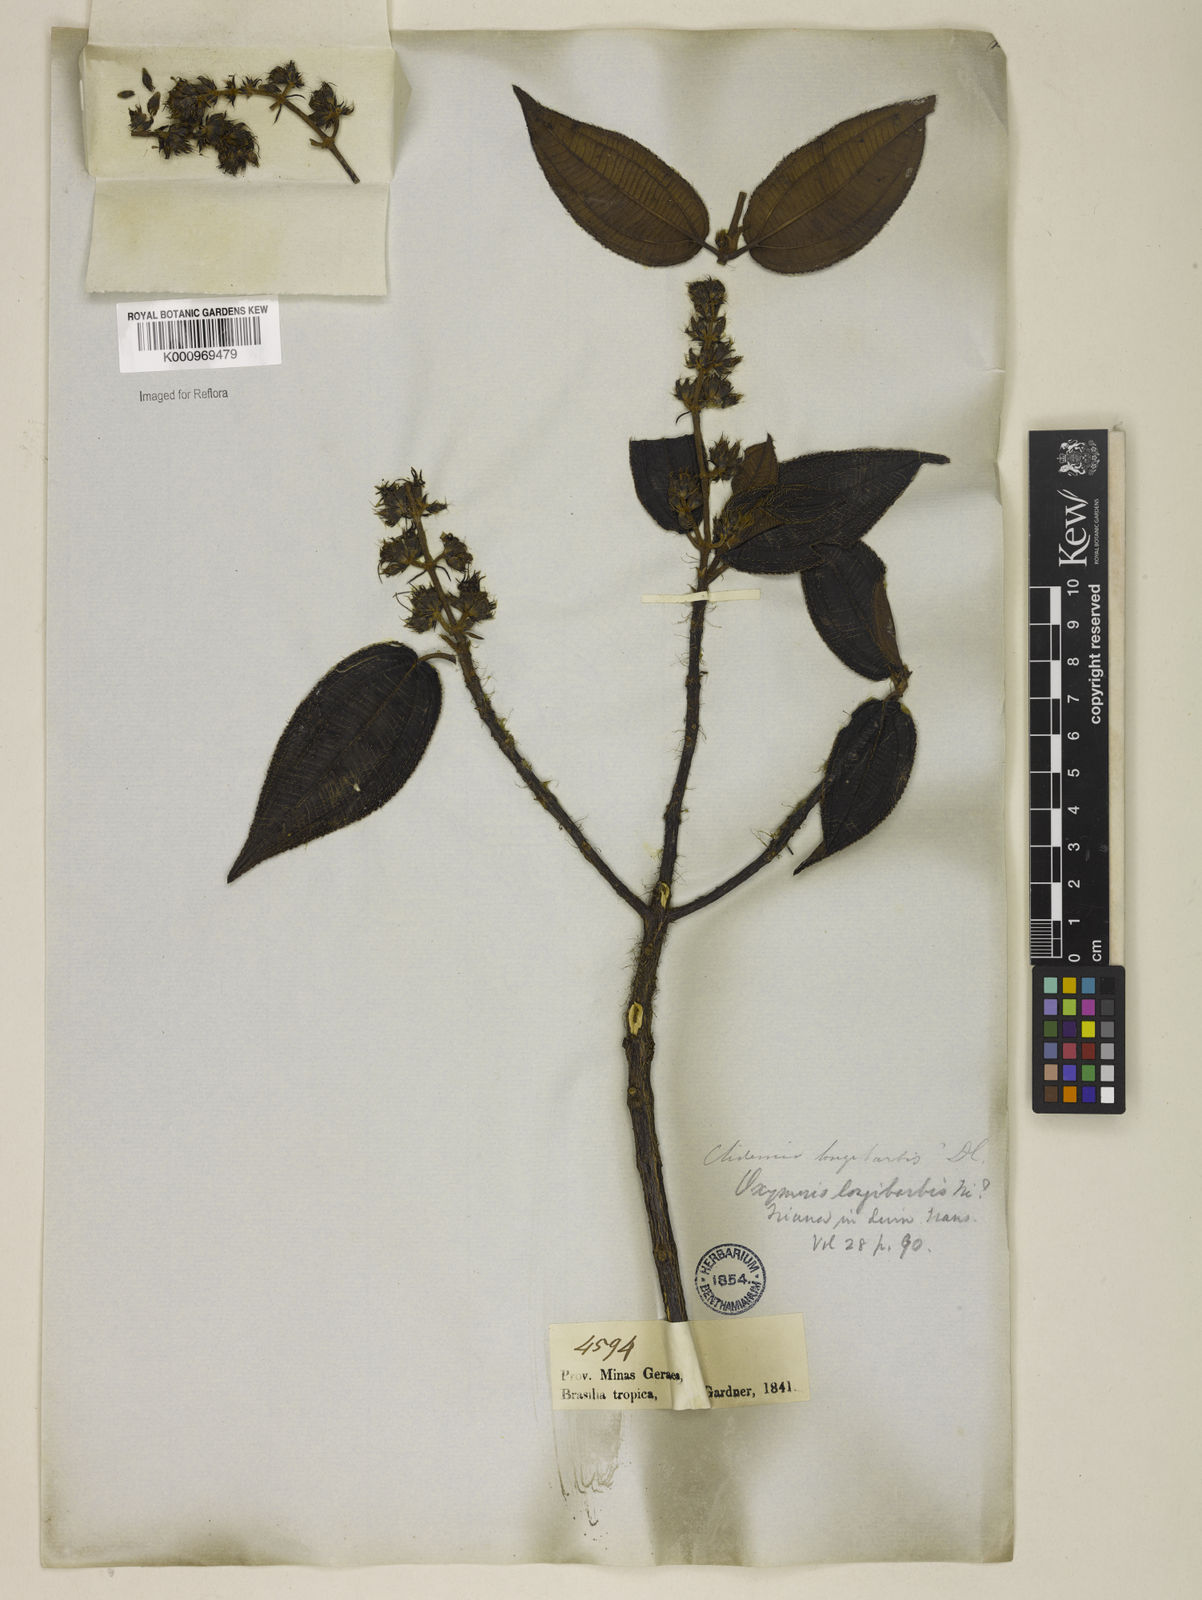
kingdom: Plantae
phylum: Tracheophyta
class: Magnoliopsida
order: Myrtales
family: Melastomataceae
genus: Miconia
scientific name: Miconia longibarbis
